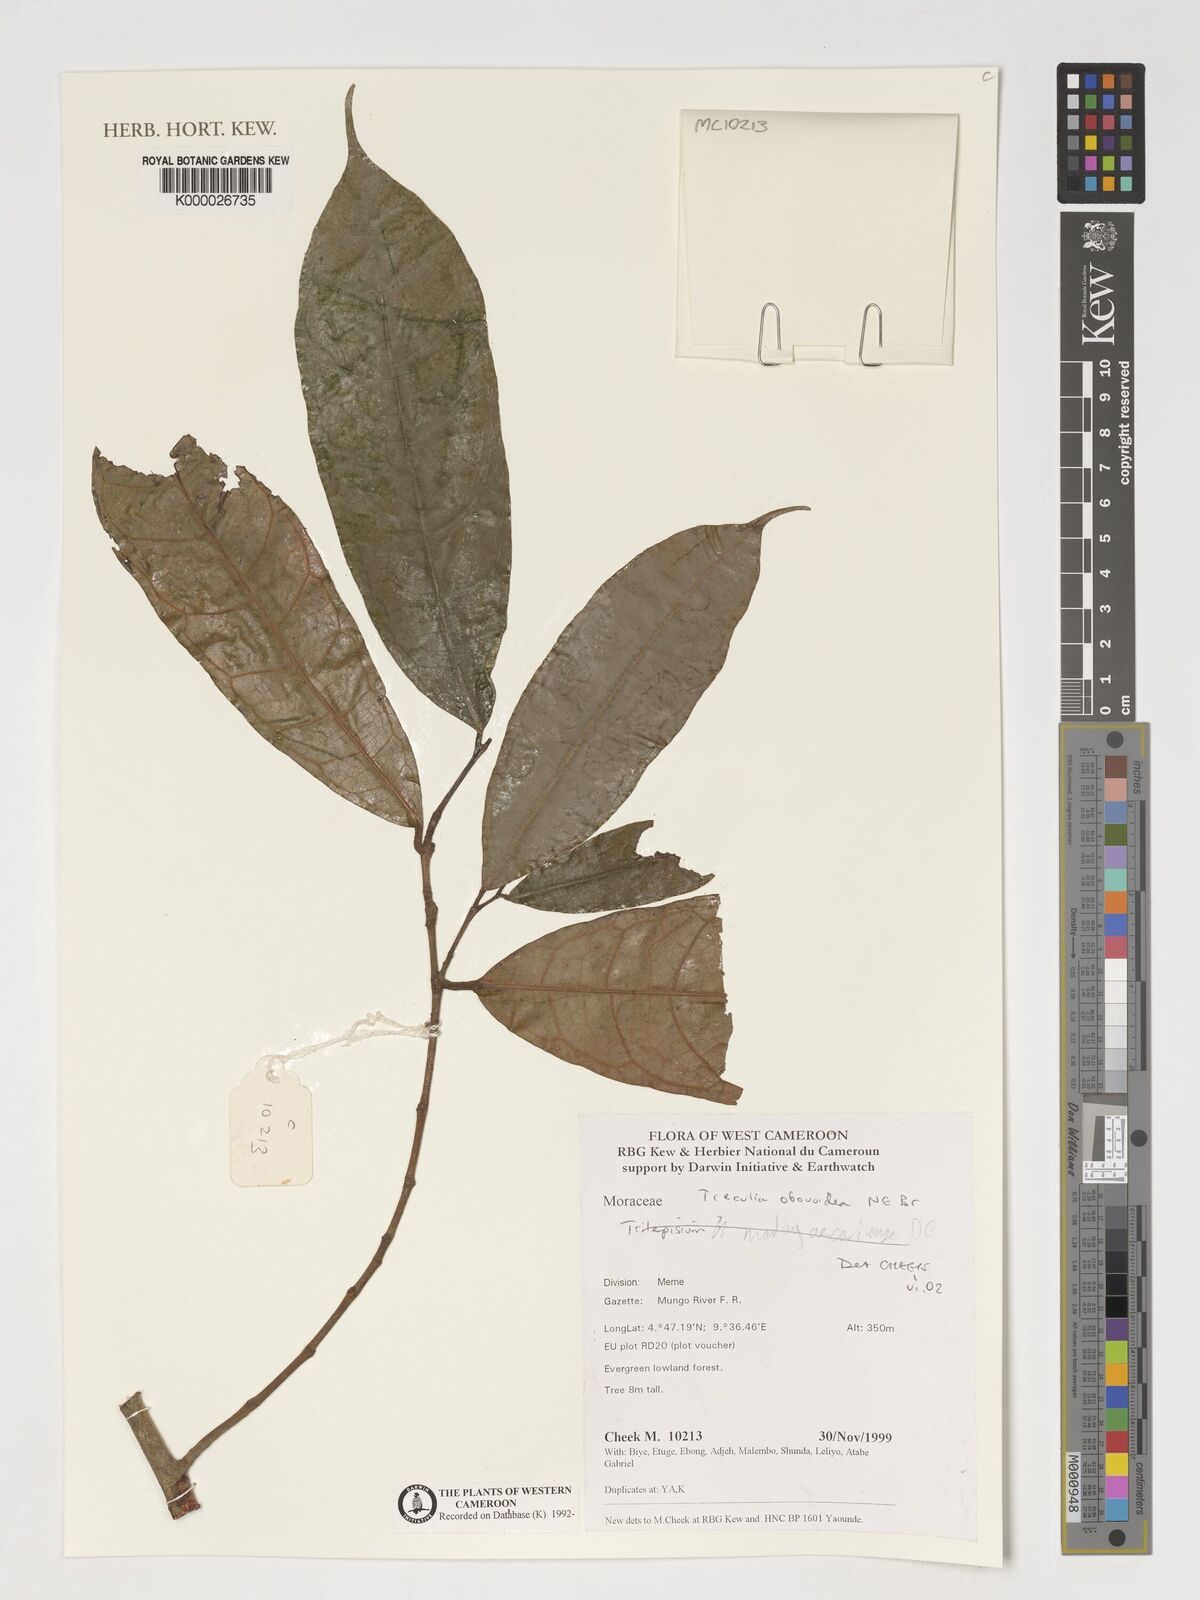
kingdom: Plantae
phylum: Tracheophyta
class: Magnoliopsida
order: Rosales
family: Moraceae
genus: Treculia
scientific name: Treculia obovoidea
